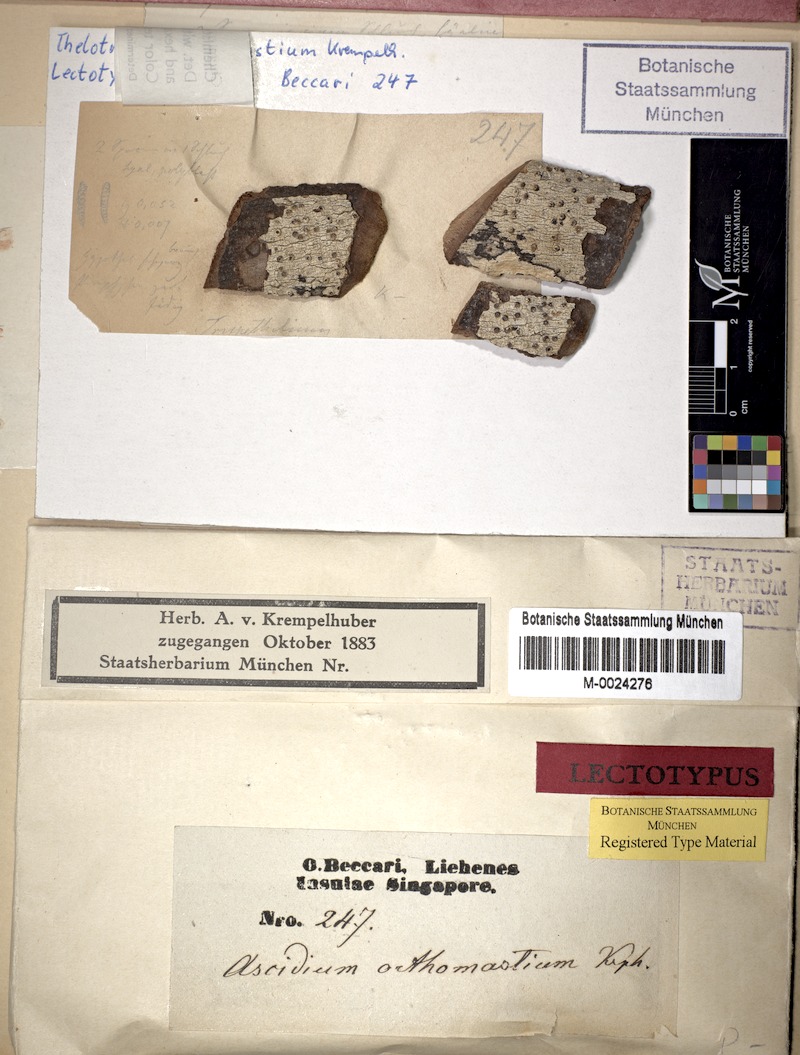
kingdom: Fungi
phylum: Ascomycota
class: Lecanoromycetes
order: Ostropales
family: Graphidaceae
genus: Ocellularia
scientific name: Ocellularia orthomastia
